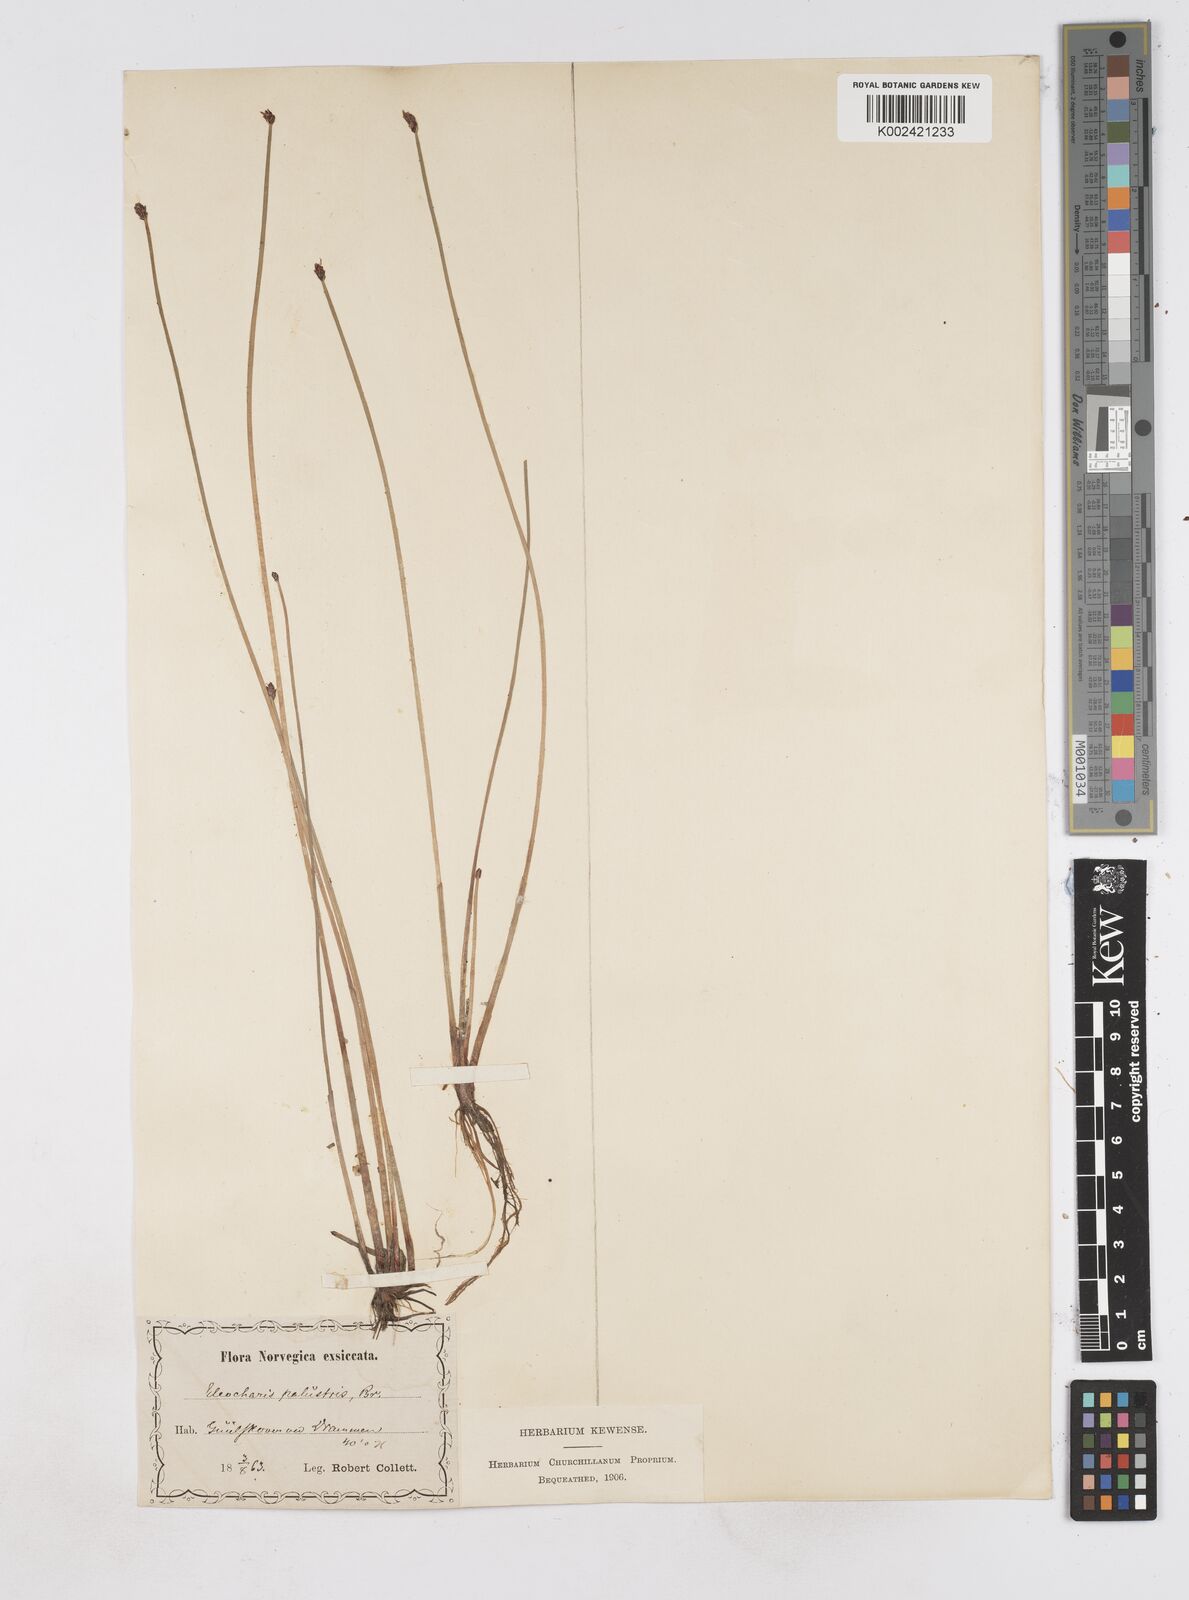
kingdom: Plantae
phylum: Tracheophyta
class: Liliopsida
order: Poales
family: Cyperaceae
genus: Eleocharis
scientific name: Eleocharis palustris
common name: Common spike-rush
